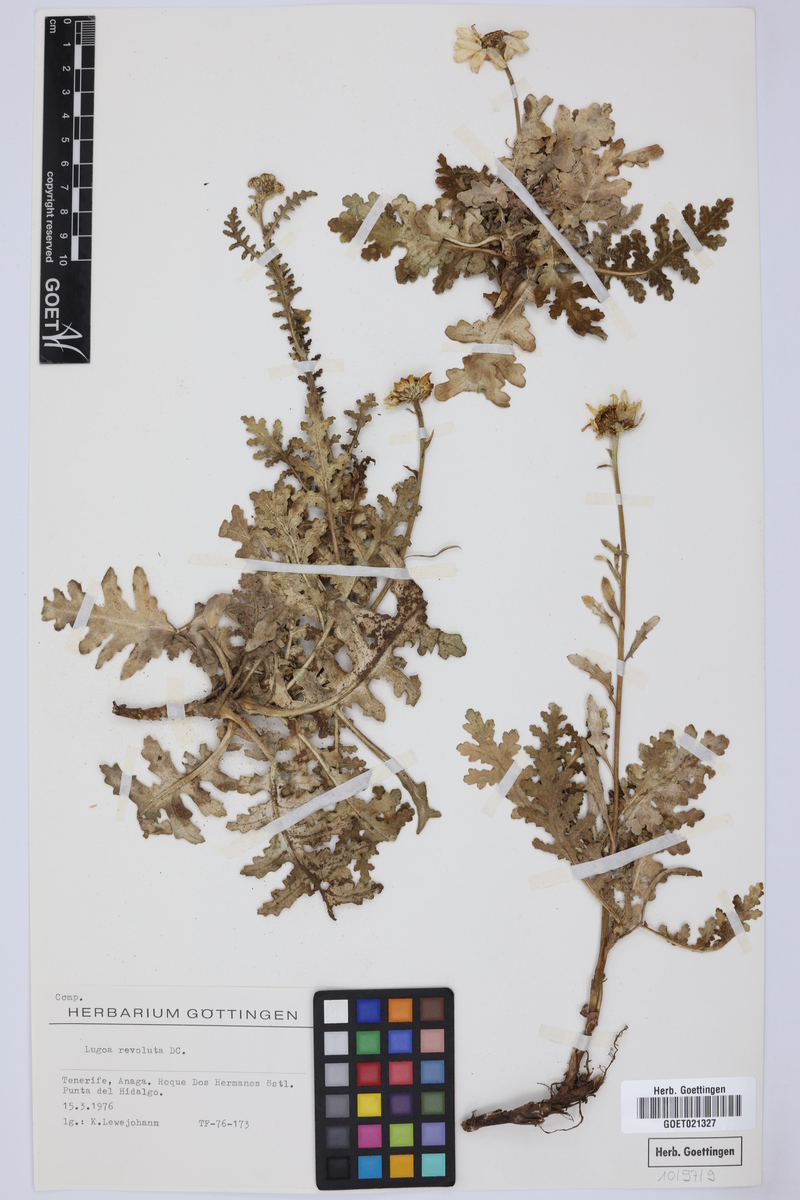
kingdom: Plantae
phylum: Tracheophyta
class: Magnoliopsida
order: Asterales
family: Asteraceae
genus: Gonospermum
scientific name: Gonospermum revolutum
